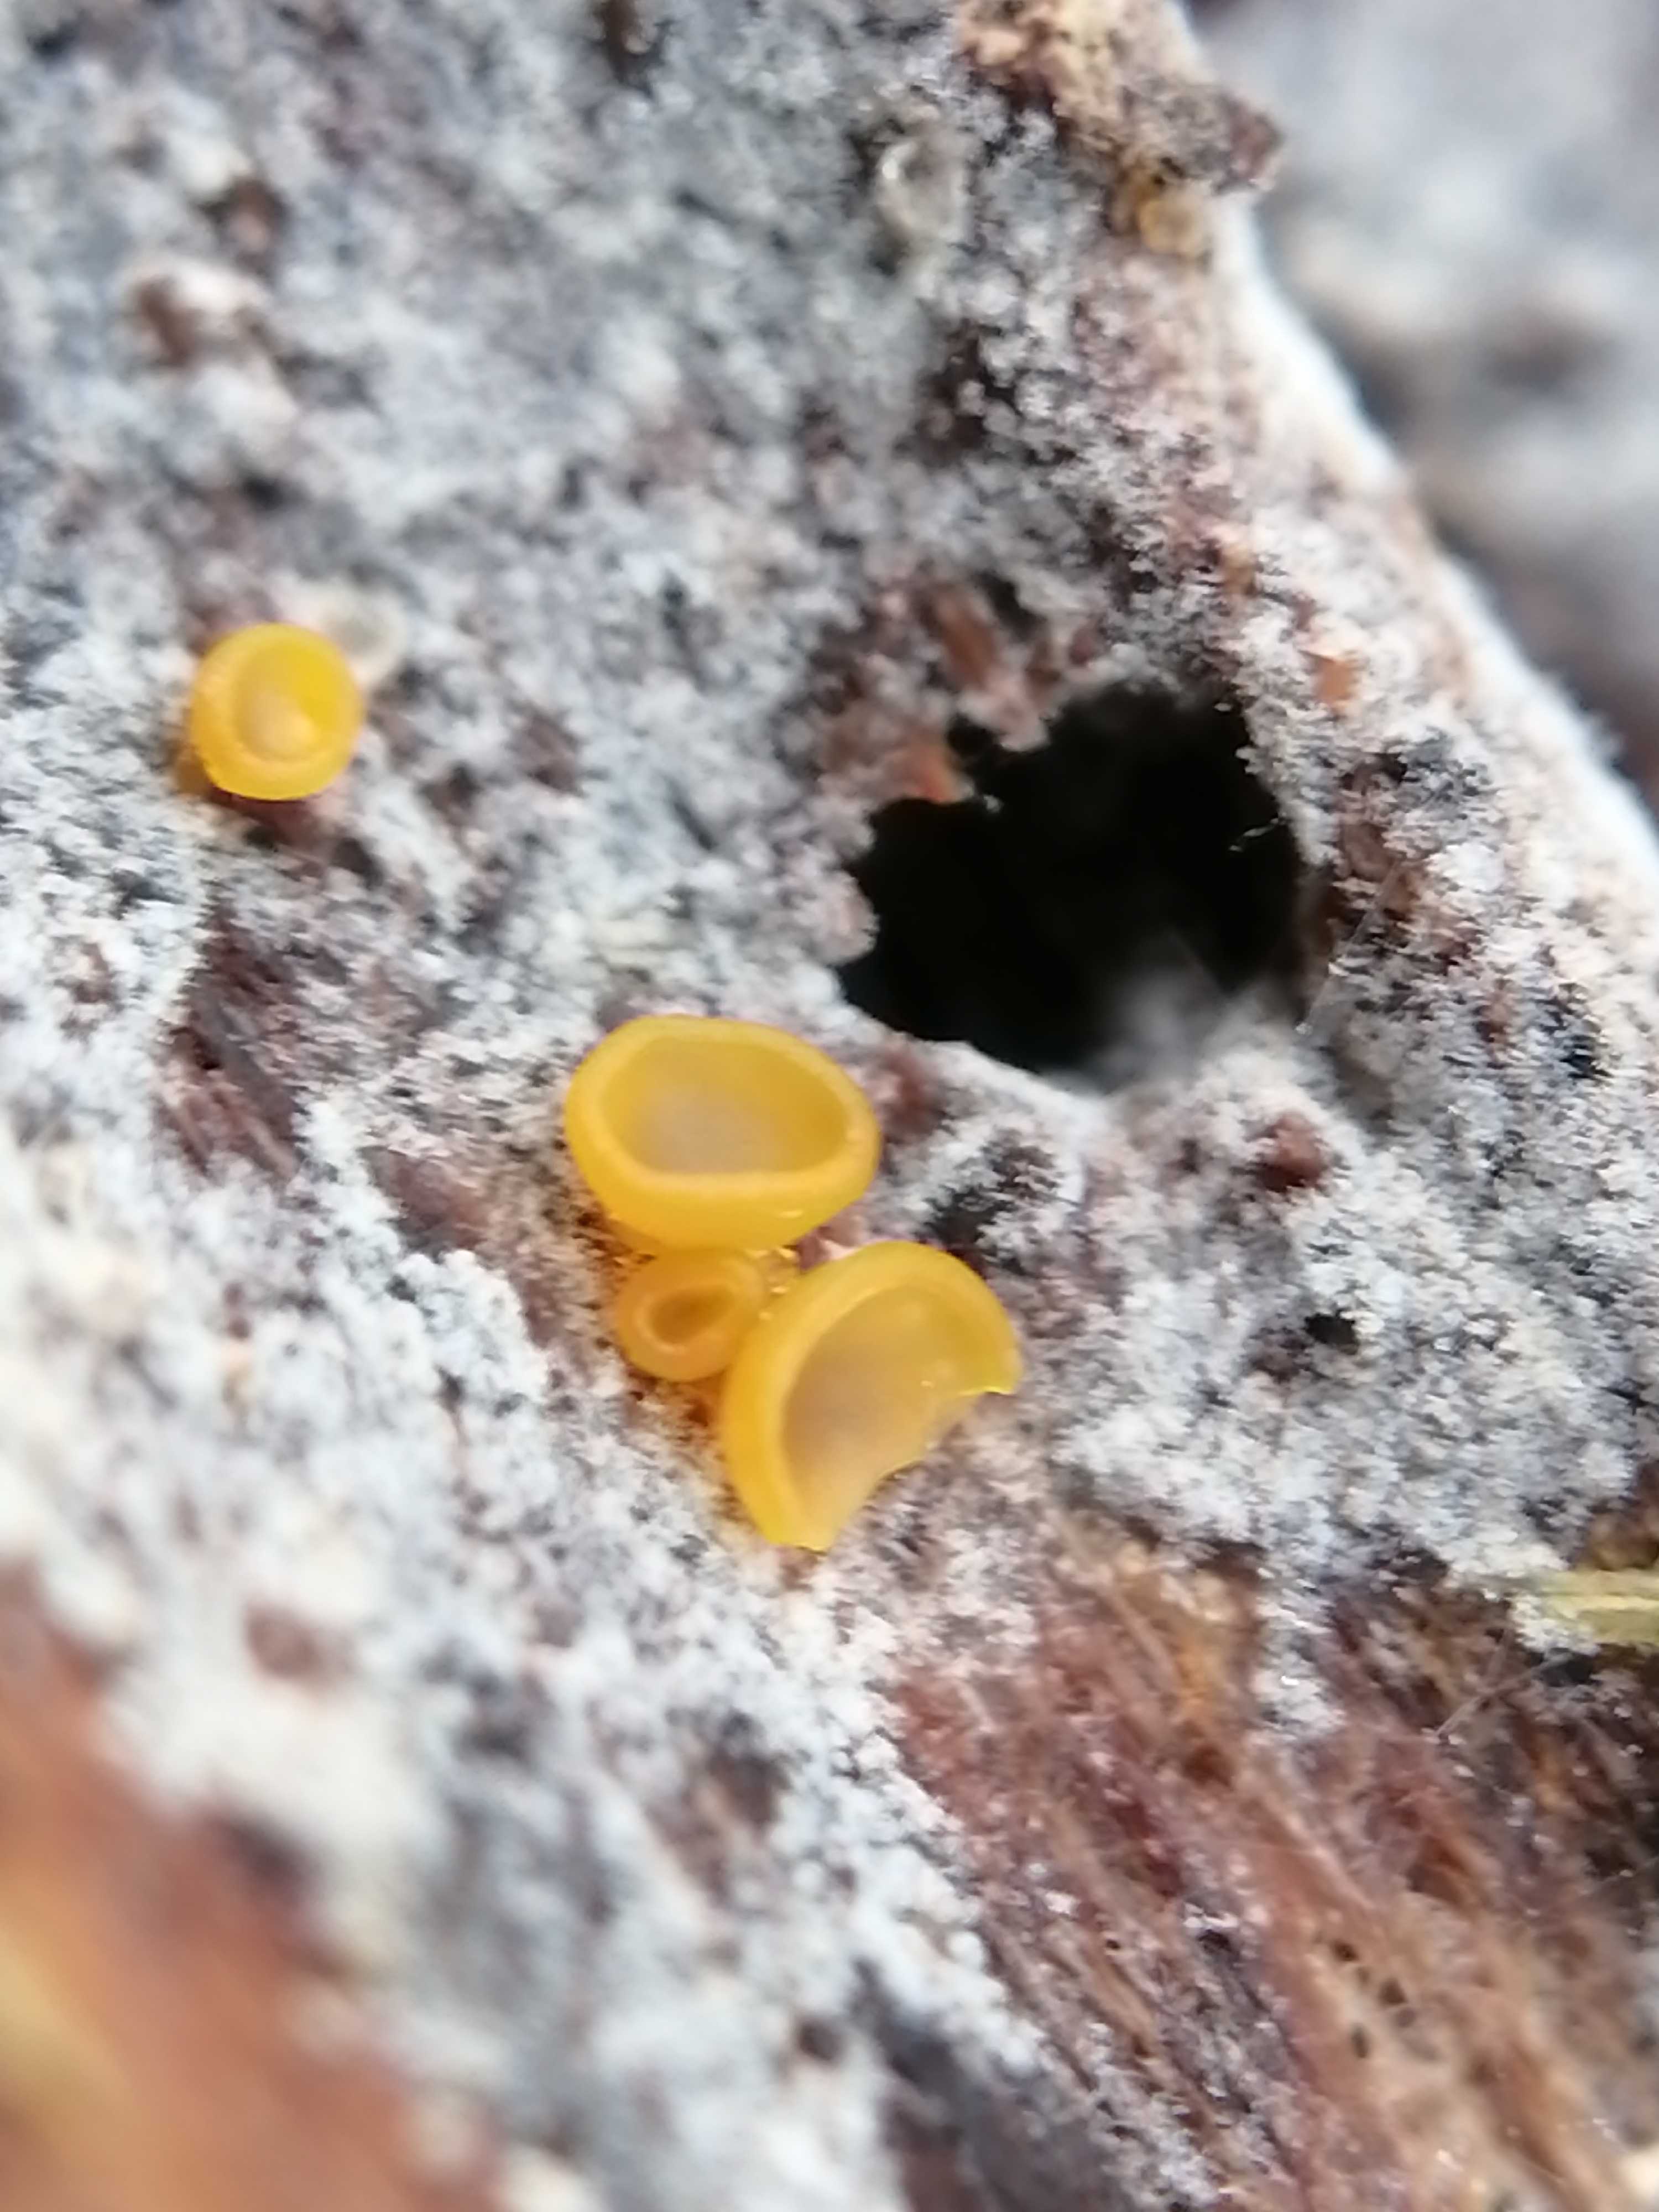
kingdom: Fungi
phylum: Ascomycota
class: Orbiliomycetes
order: Orbiliales
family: Orbiliaceae
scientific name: Orbiliaceae
